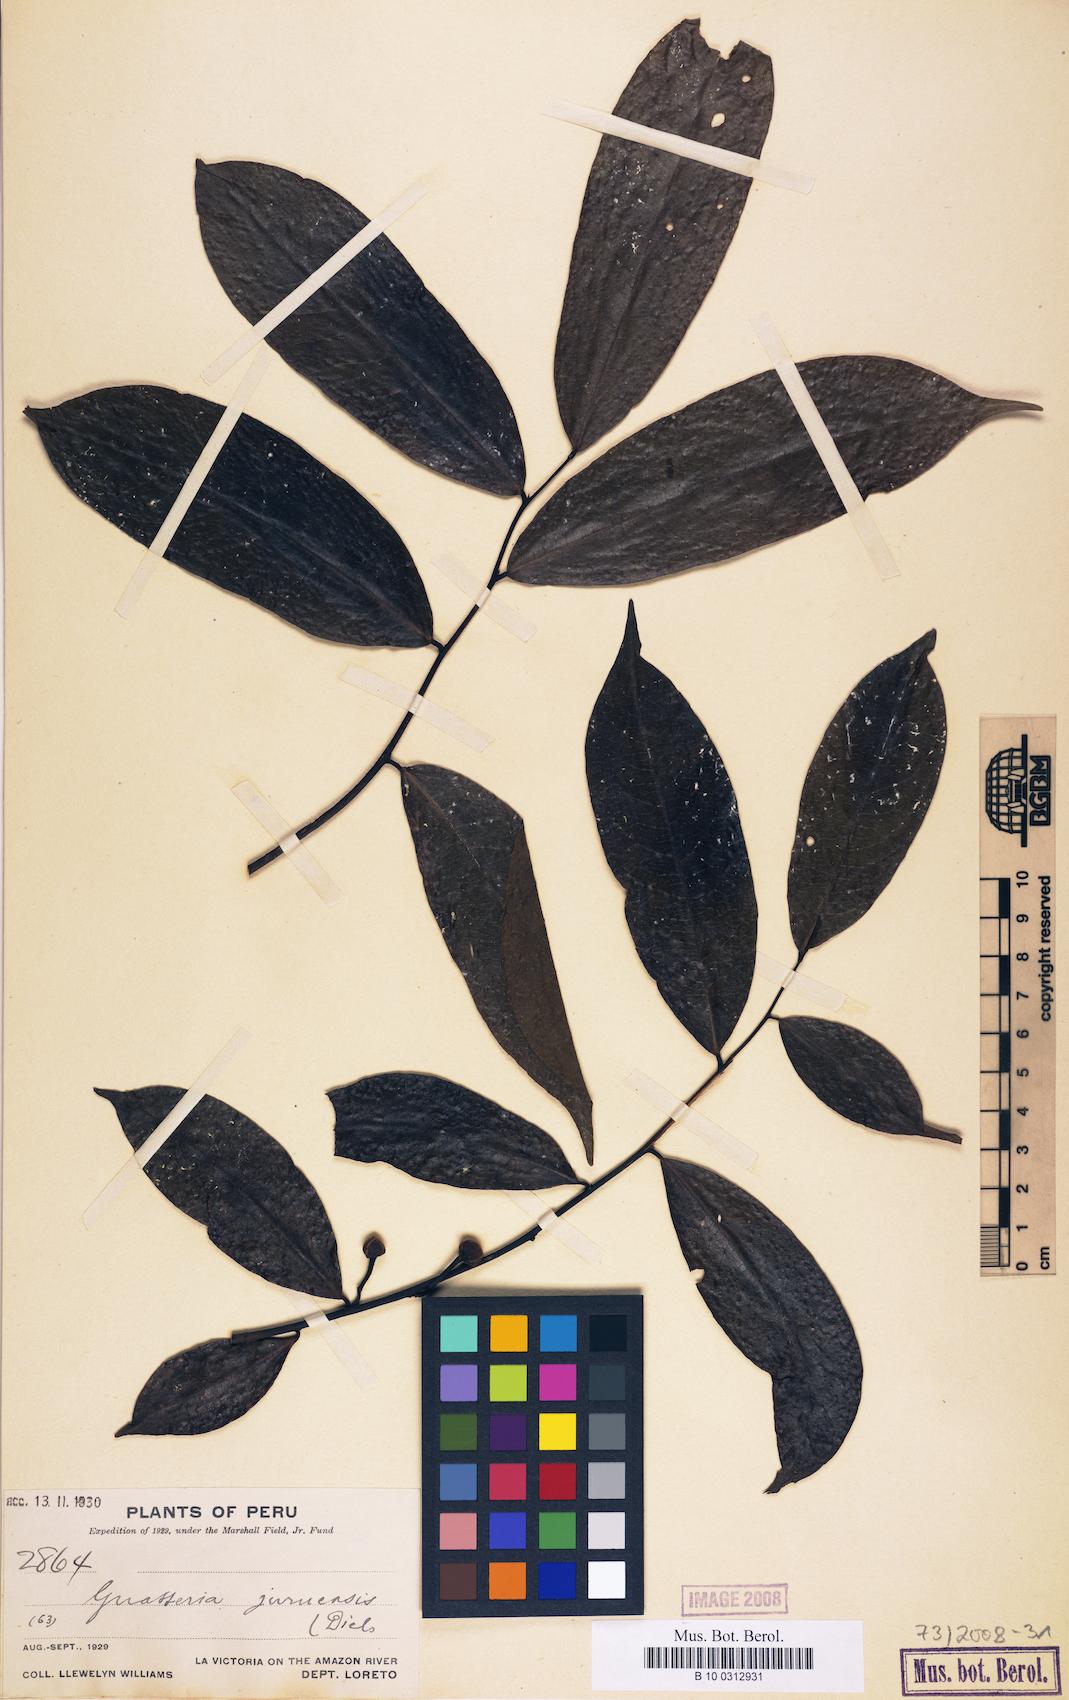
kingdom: Plantae
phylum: Tracheophyta
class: Magnoliopsida
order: Magnoliales
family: Annonaceae
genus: Guatteria
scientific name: Guatteria hirsuta
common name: Laurel
